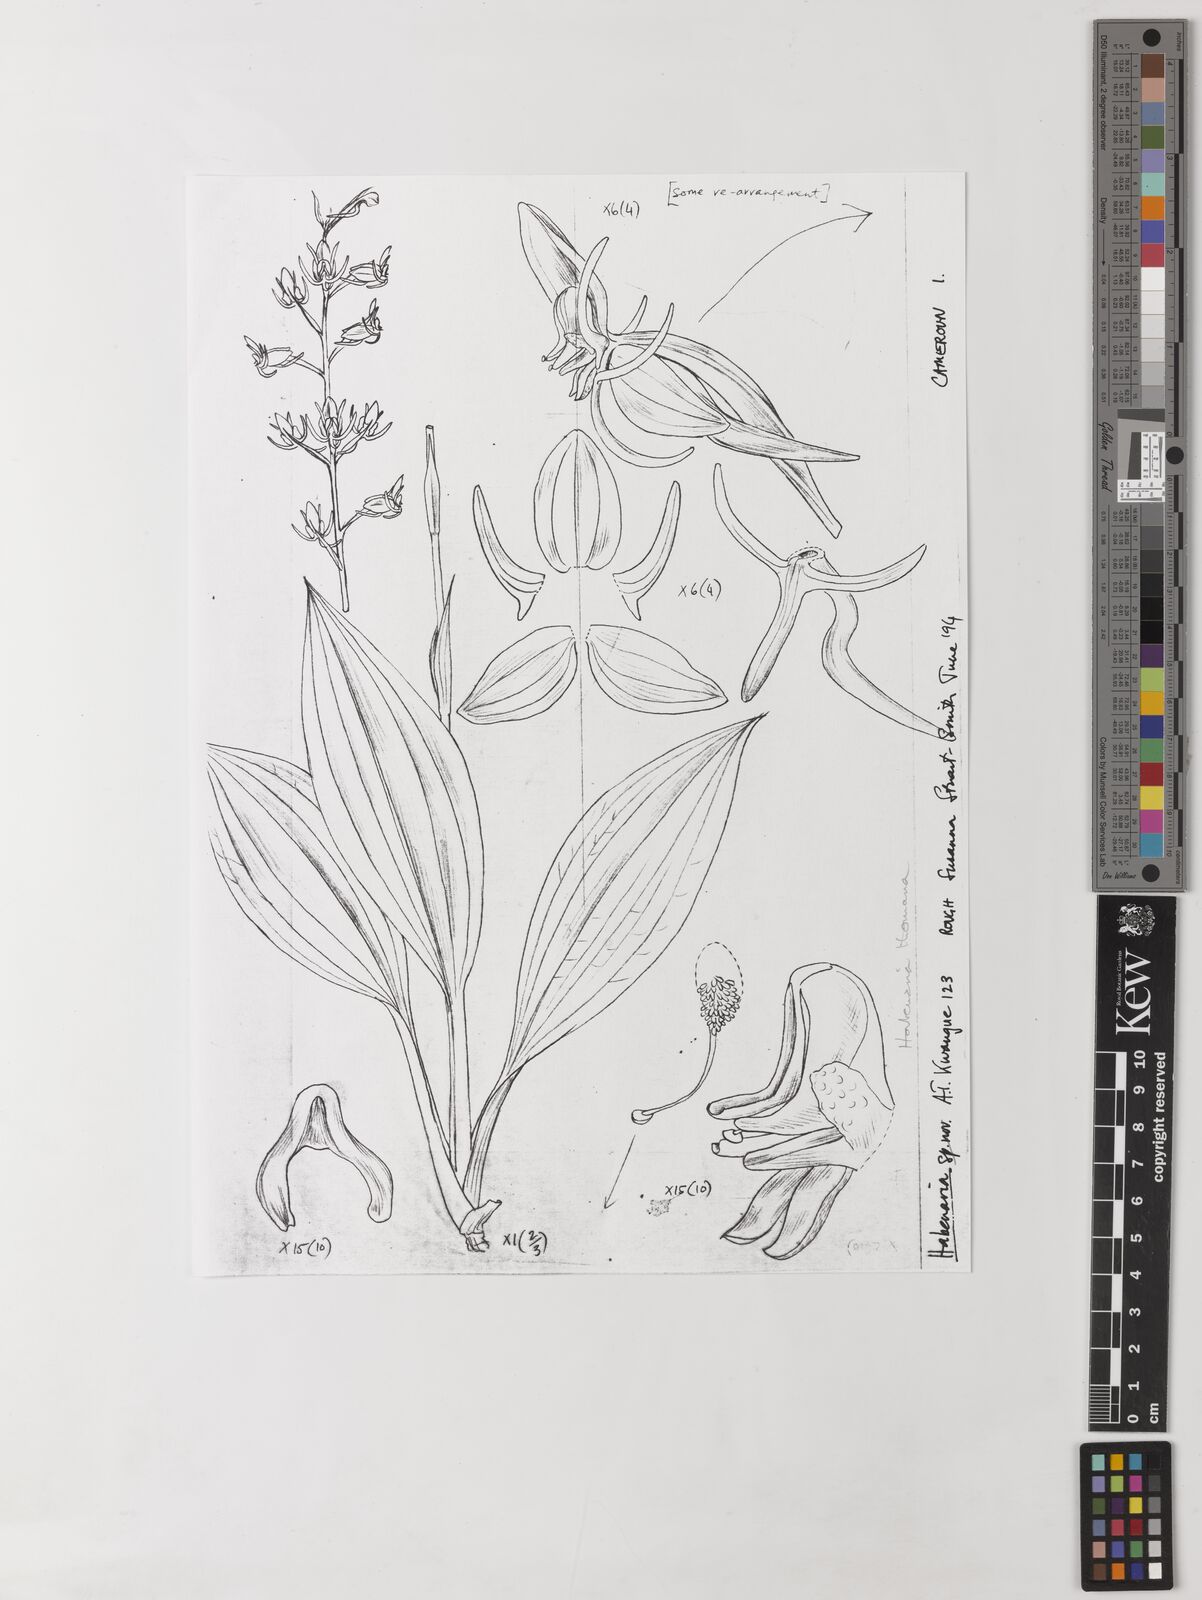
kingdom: Plantae
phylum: Tracheophyta
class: Liliopsida
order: Asparagales
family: Orchidaceae
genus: Habenaria
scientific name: Habenaria thomana
